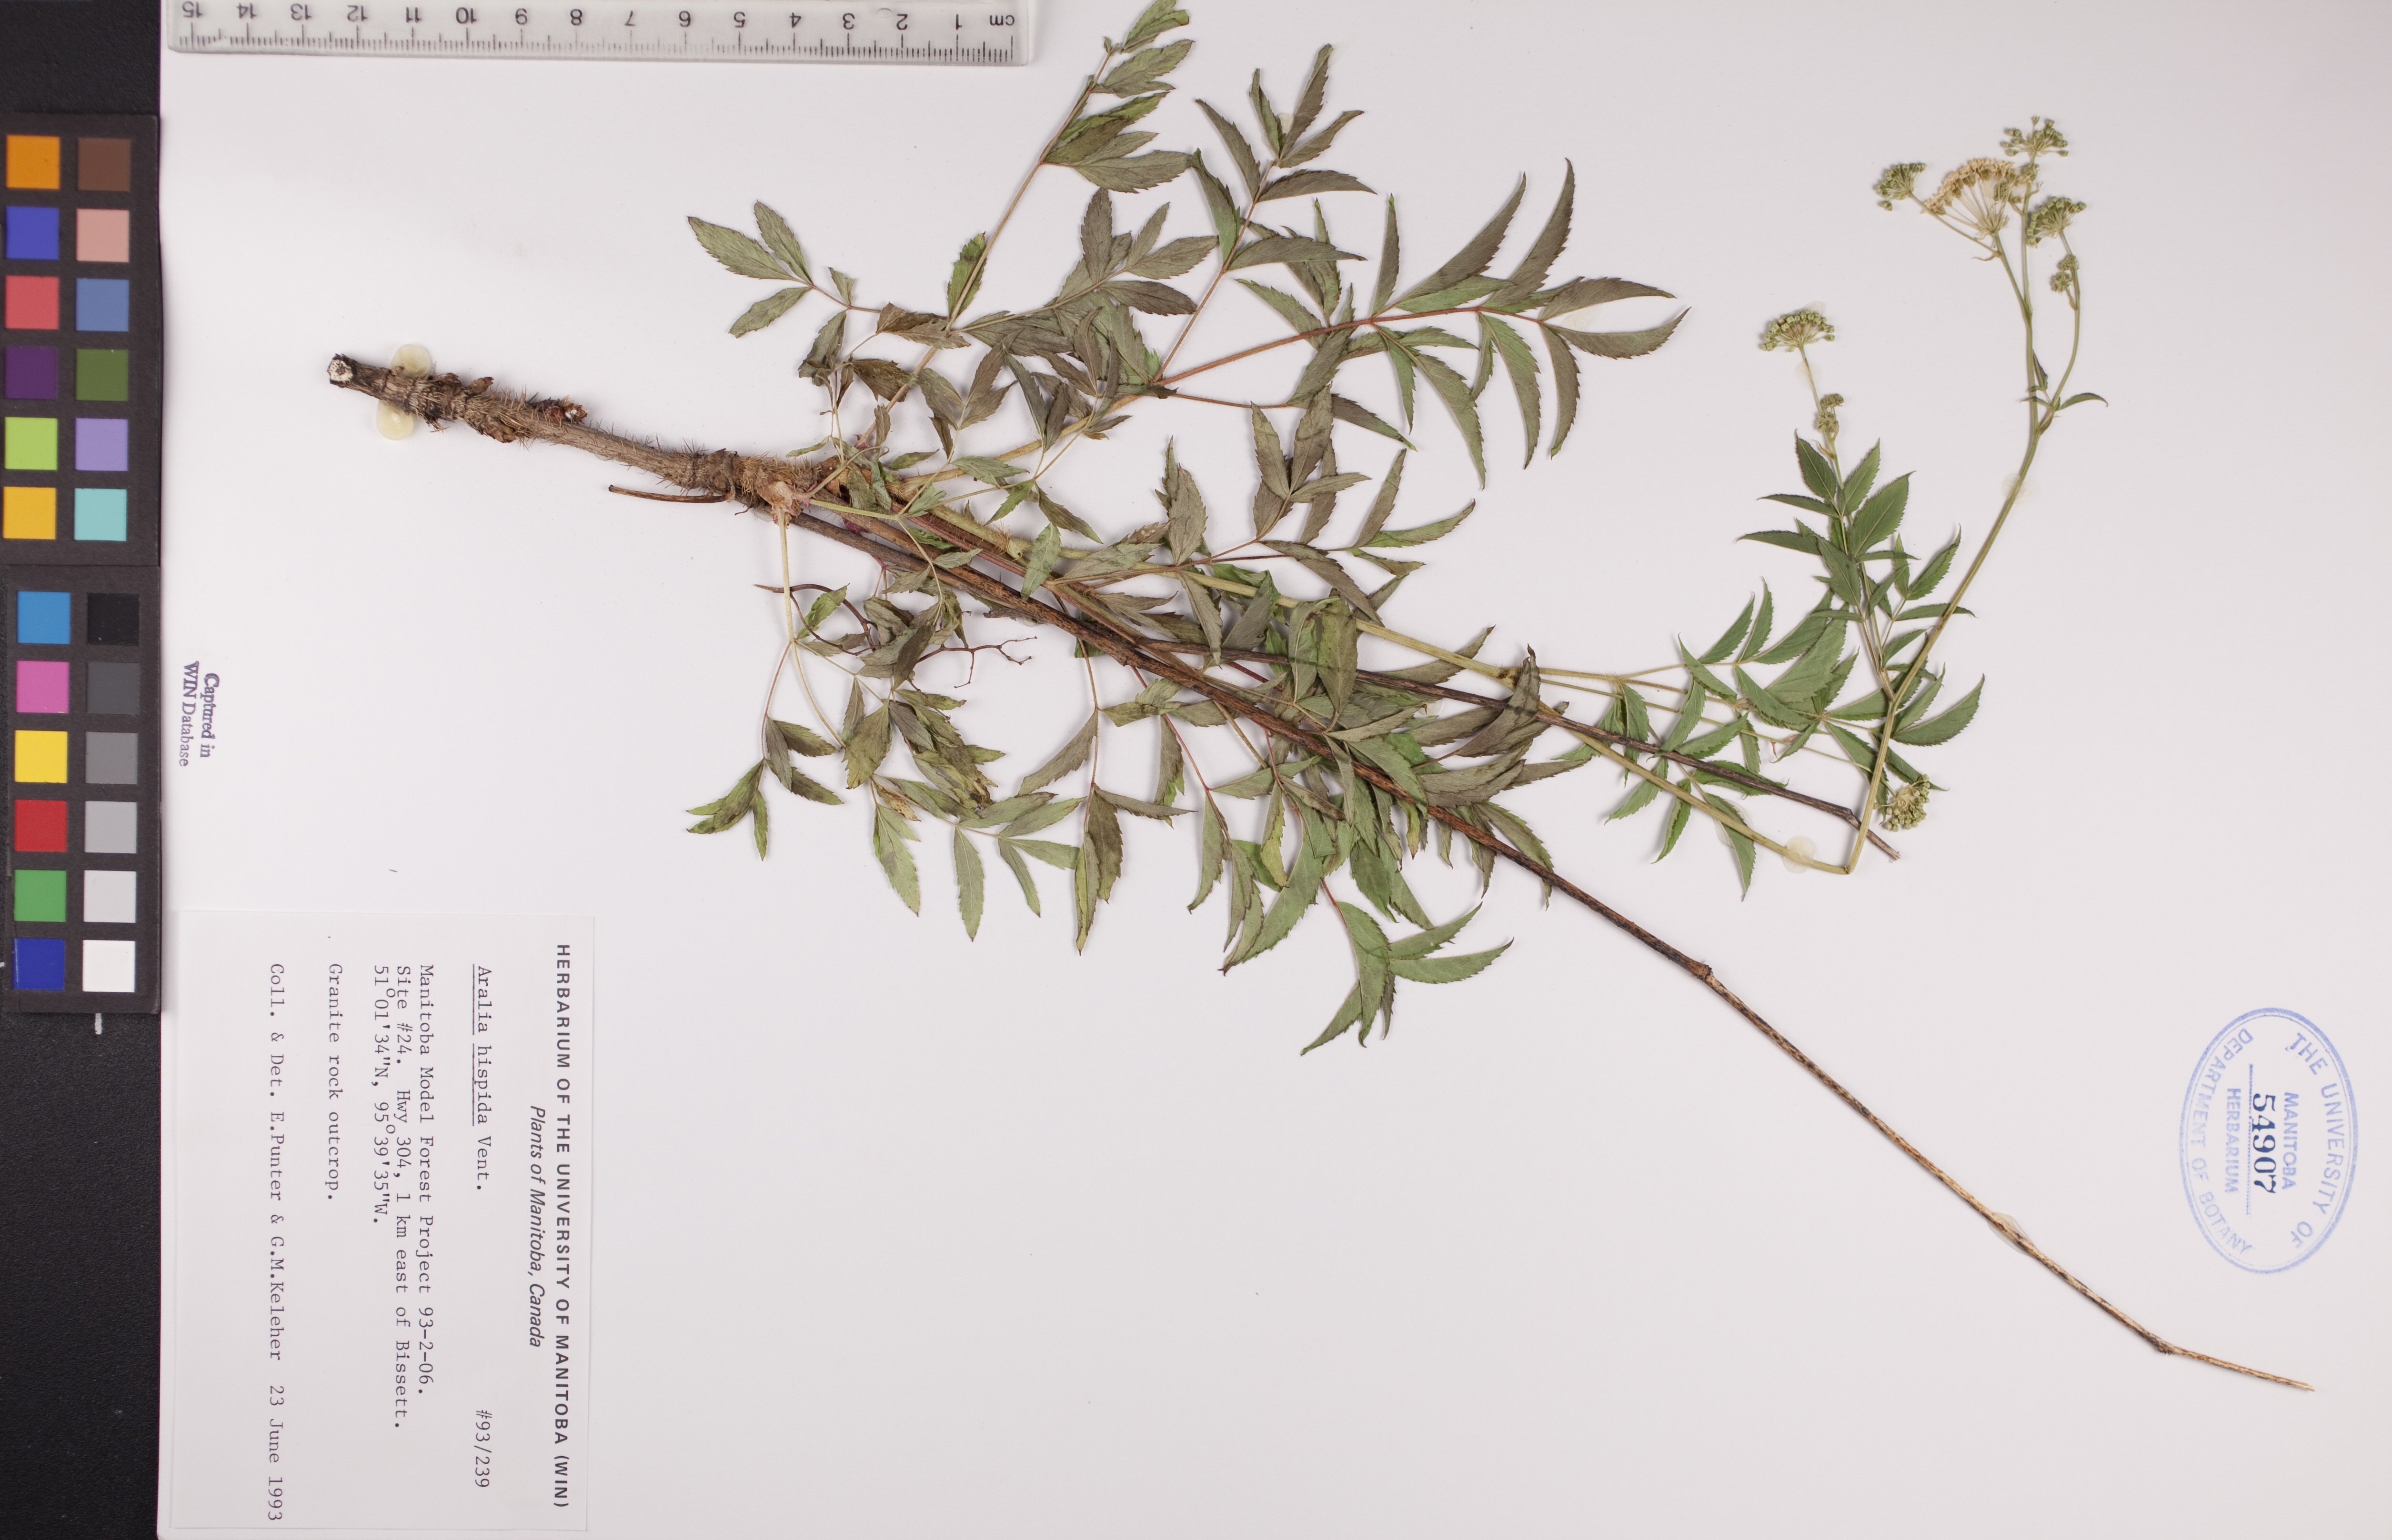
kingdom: Plantae
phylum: Tracheophyta
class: Magnoliopsida
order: Apiales
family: Araliaceae
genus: Aralia
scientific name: Aralia hispida
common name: Bristly sarsaparilla
